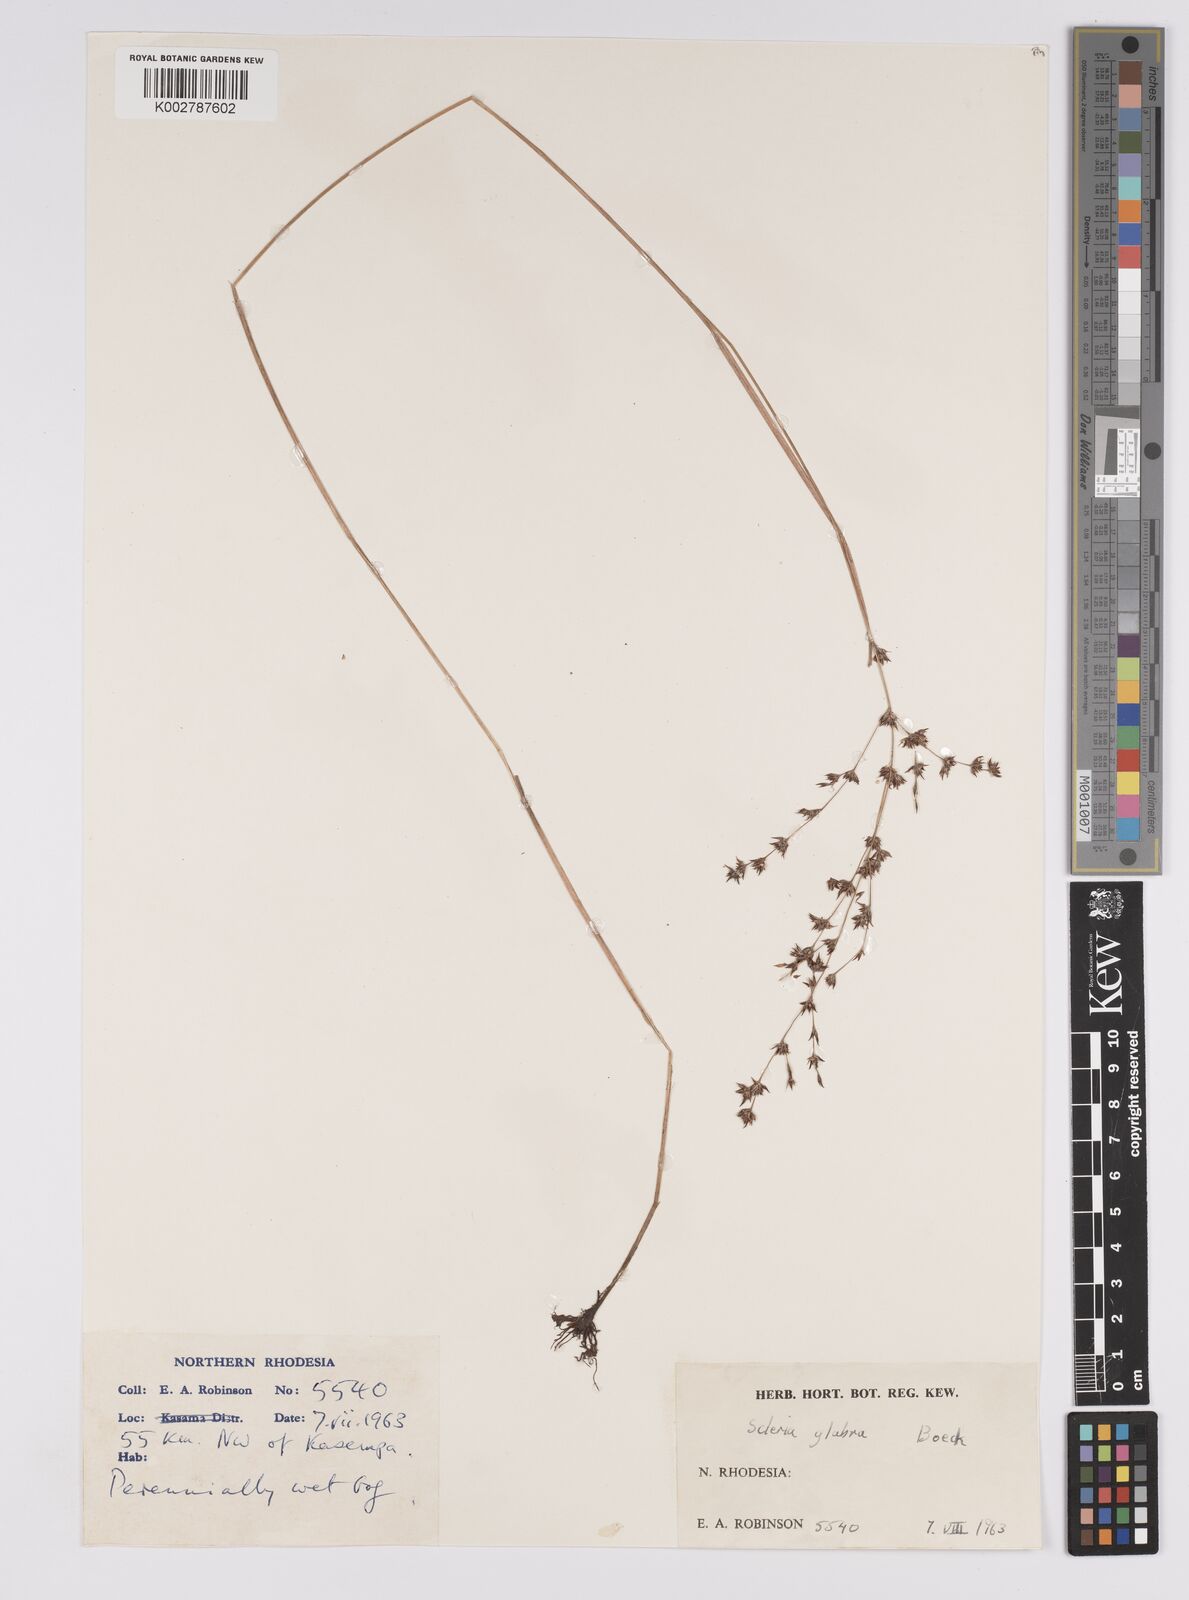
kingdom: Plantae
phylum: Tracheophyta
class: Liliopsida
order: Poales
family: Cyperaceae
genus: Scleria
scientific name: Scleria glabra
